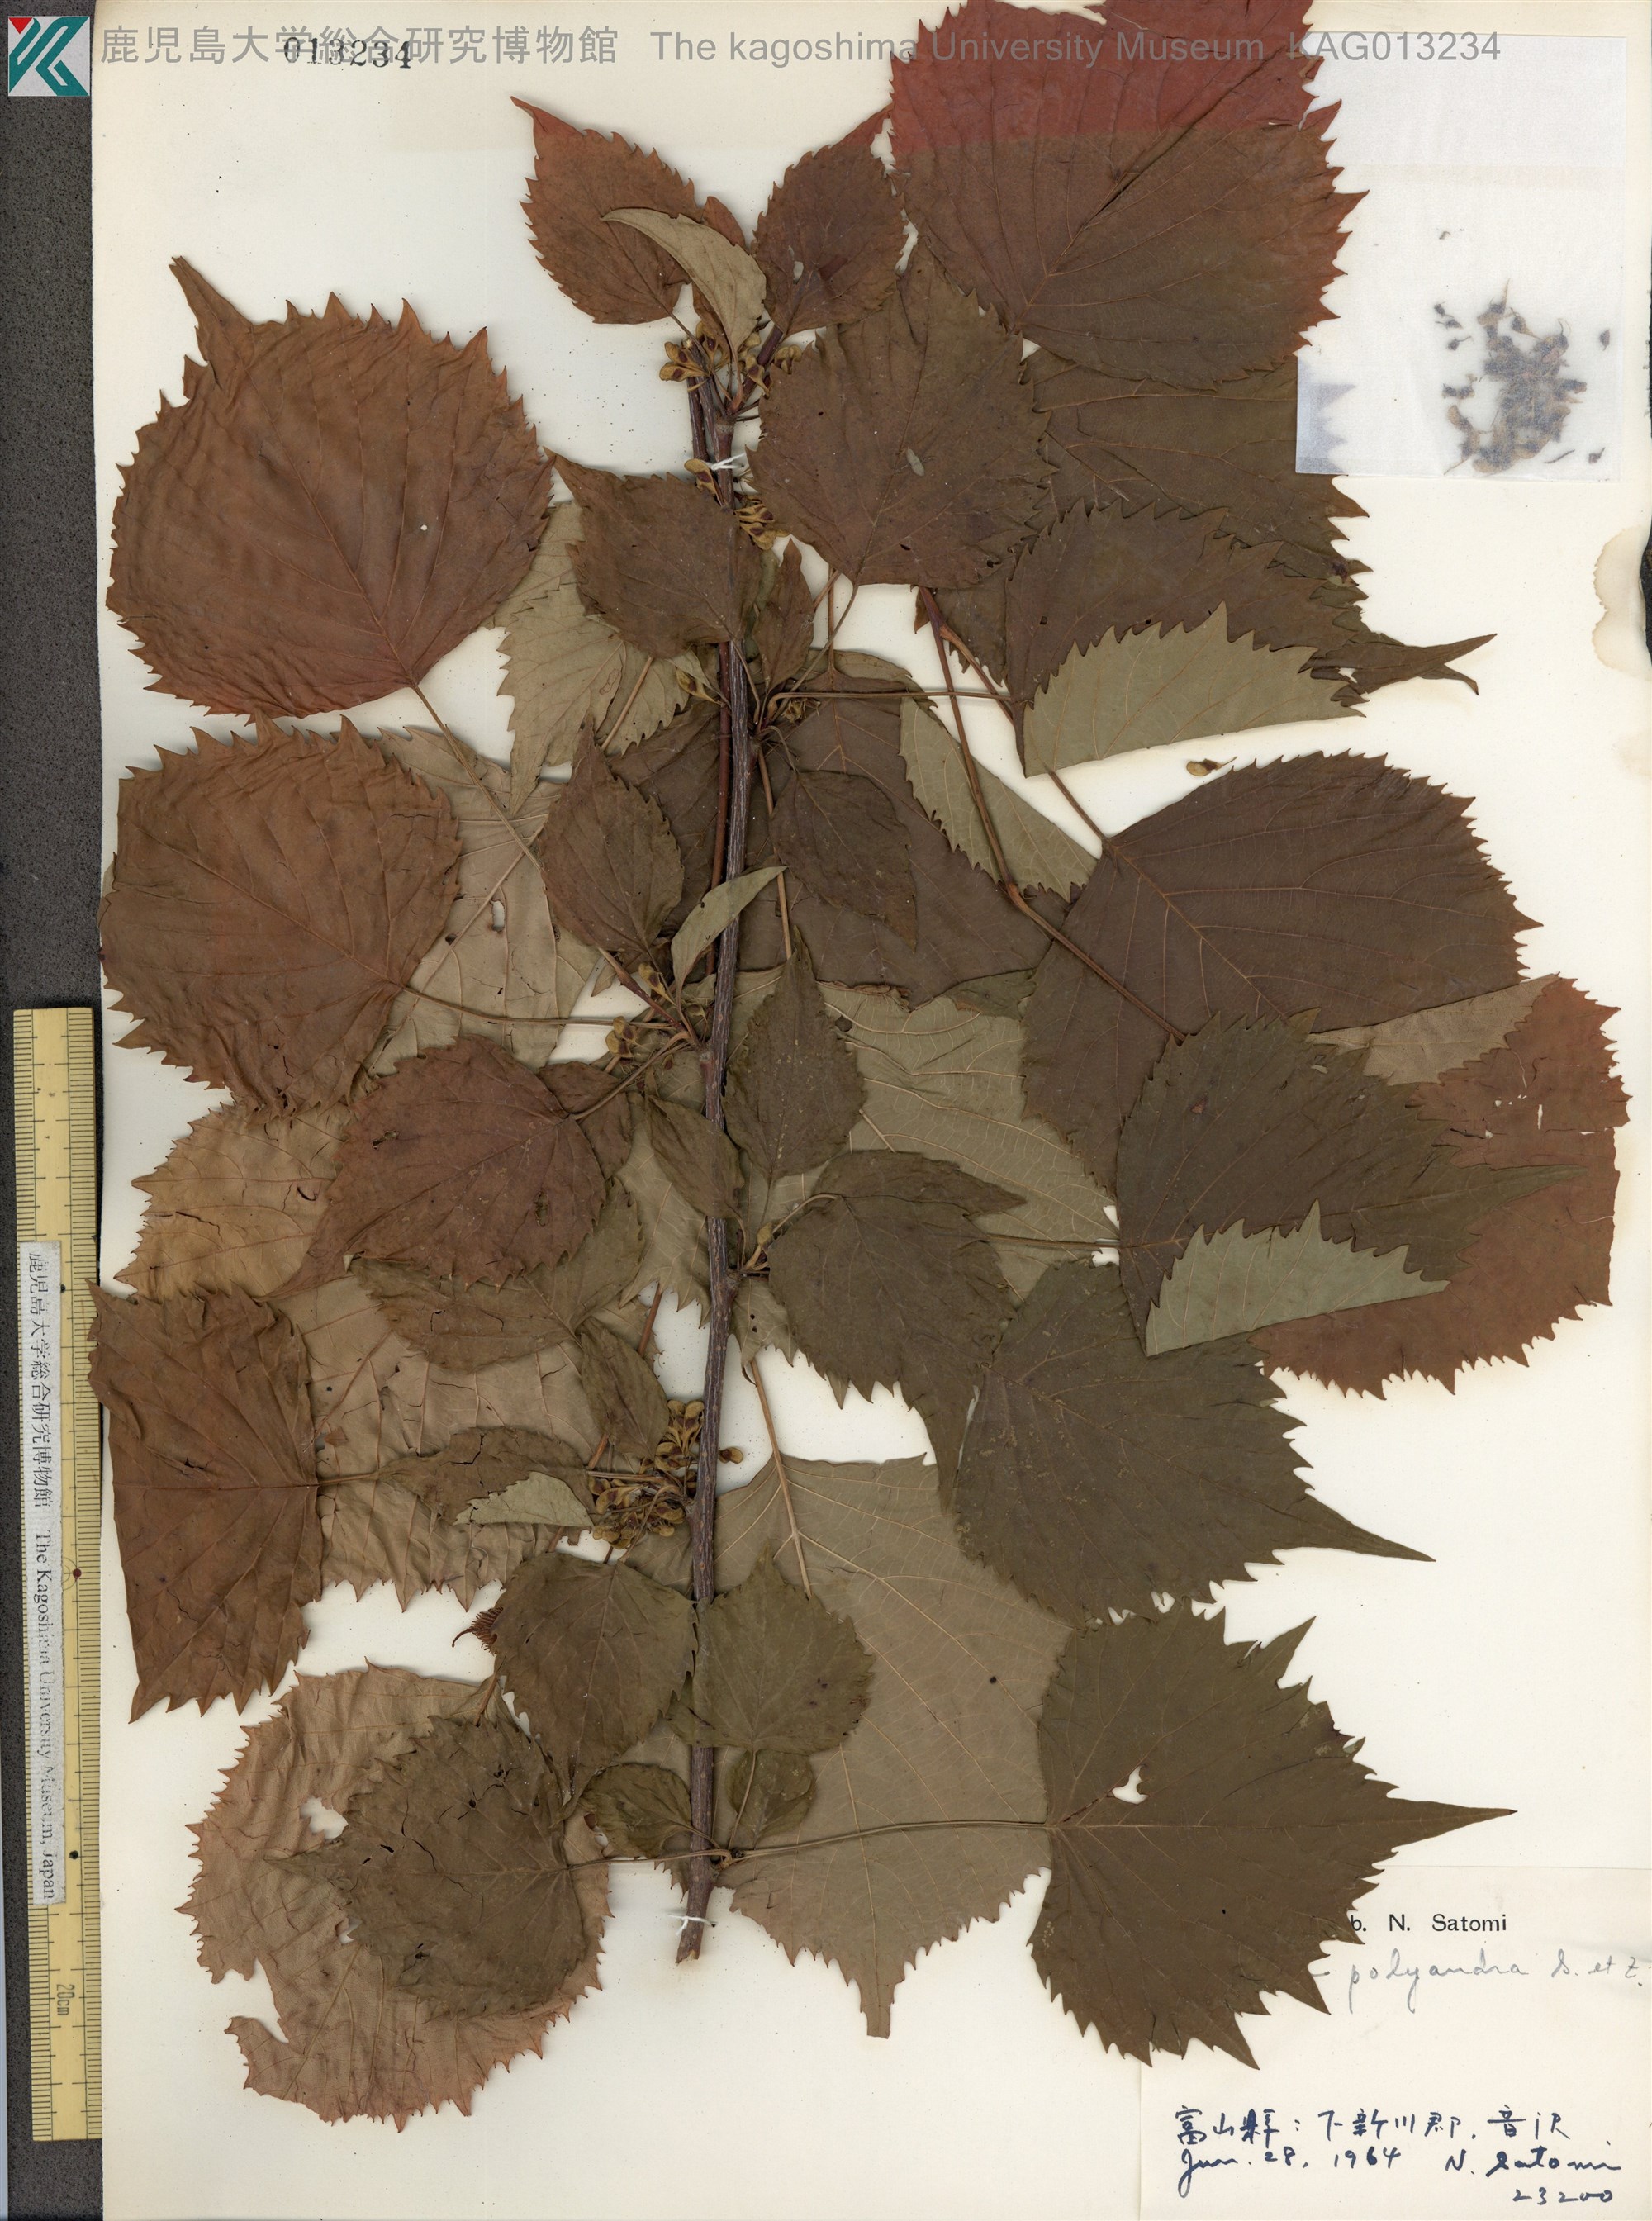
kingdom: Plantae
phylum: Tracheophyta
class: Magnoliopsida
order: Ranunculales
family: Eupteleaceae
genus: Euptelea
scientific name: Euptelea polyandra
